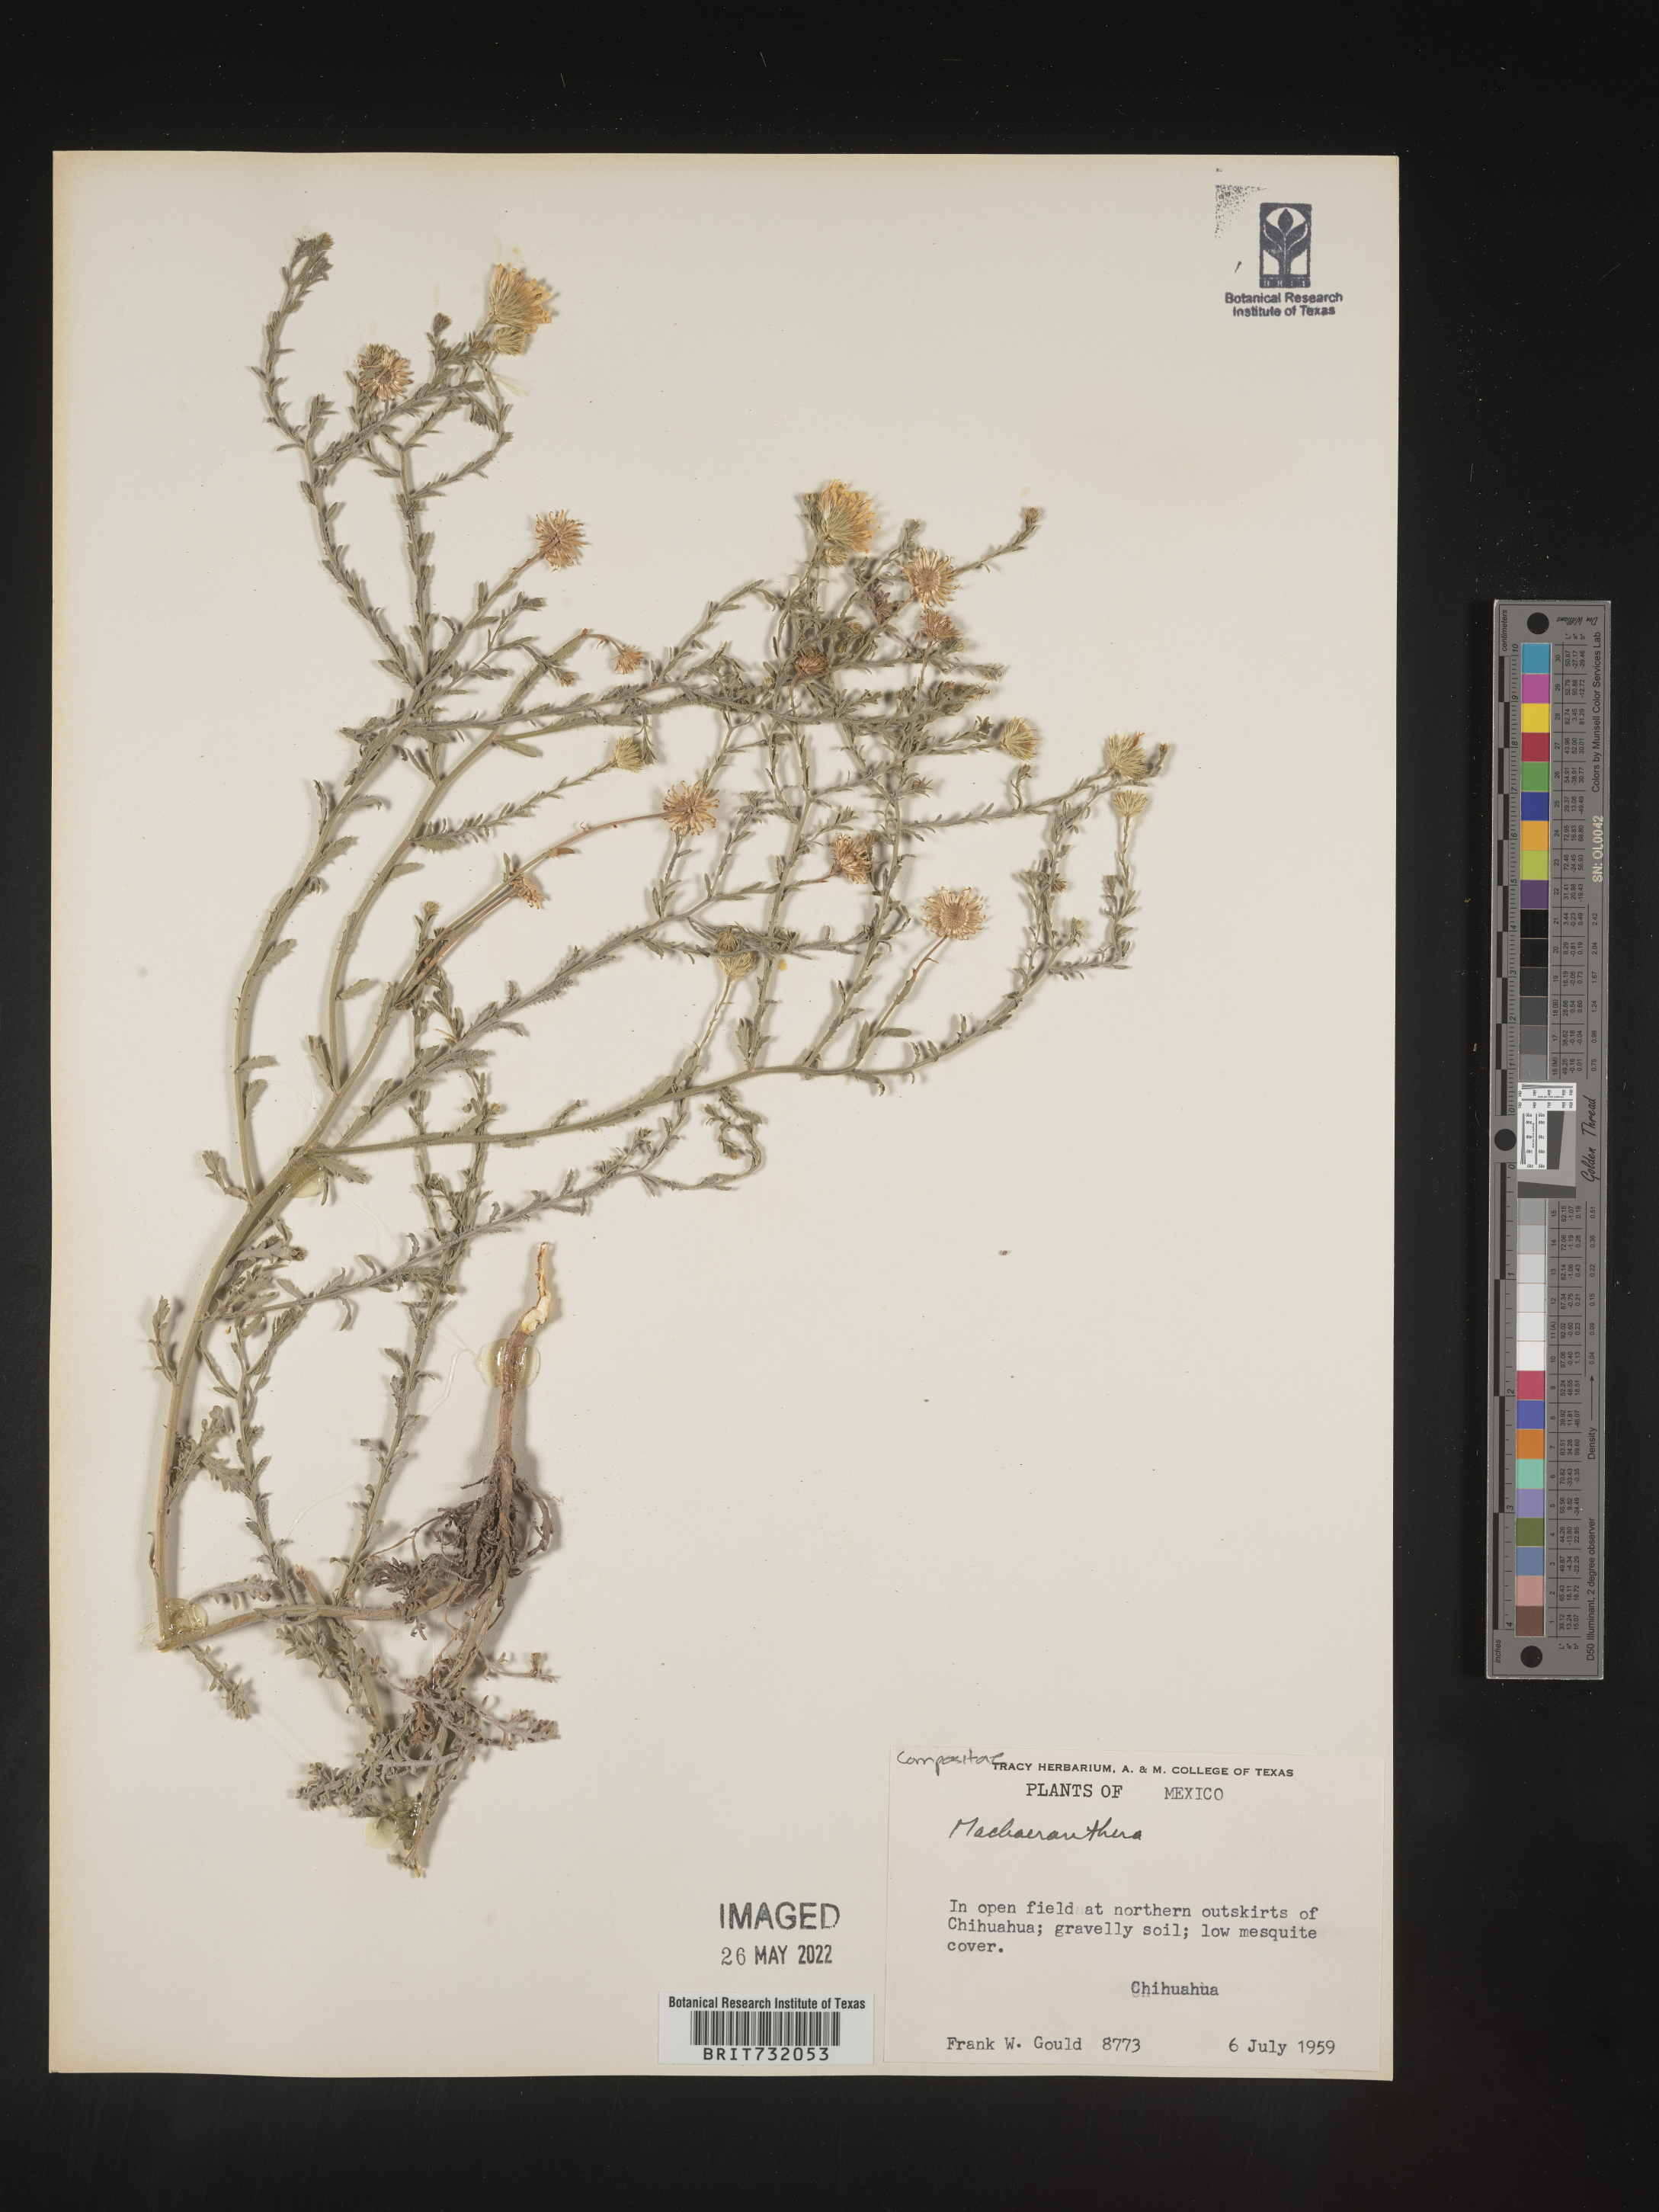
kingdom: Plantae
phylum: Tracheophyta
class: Magnoliopsida
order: Asterales
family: Asteraceae
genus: Machaeranthera
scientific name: Machaeranthera
